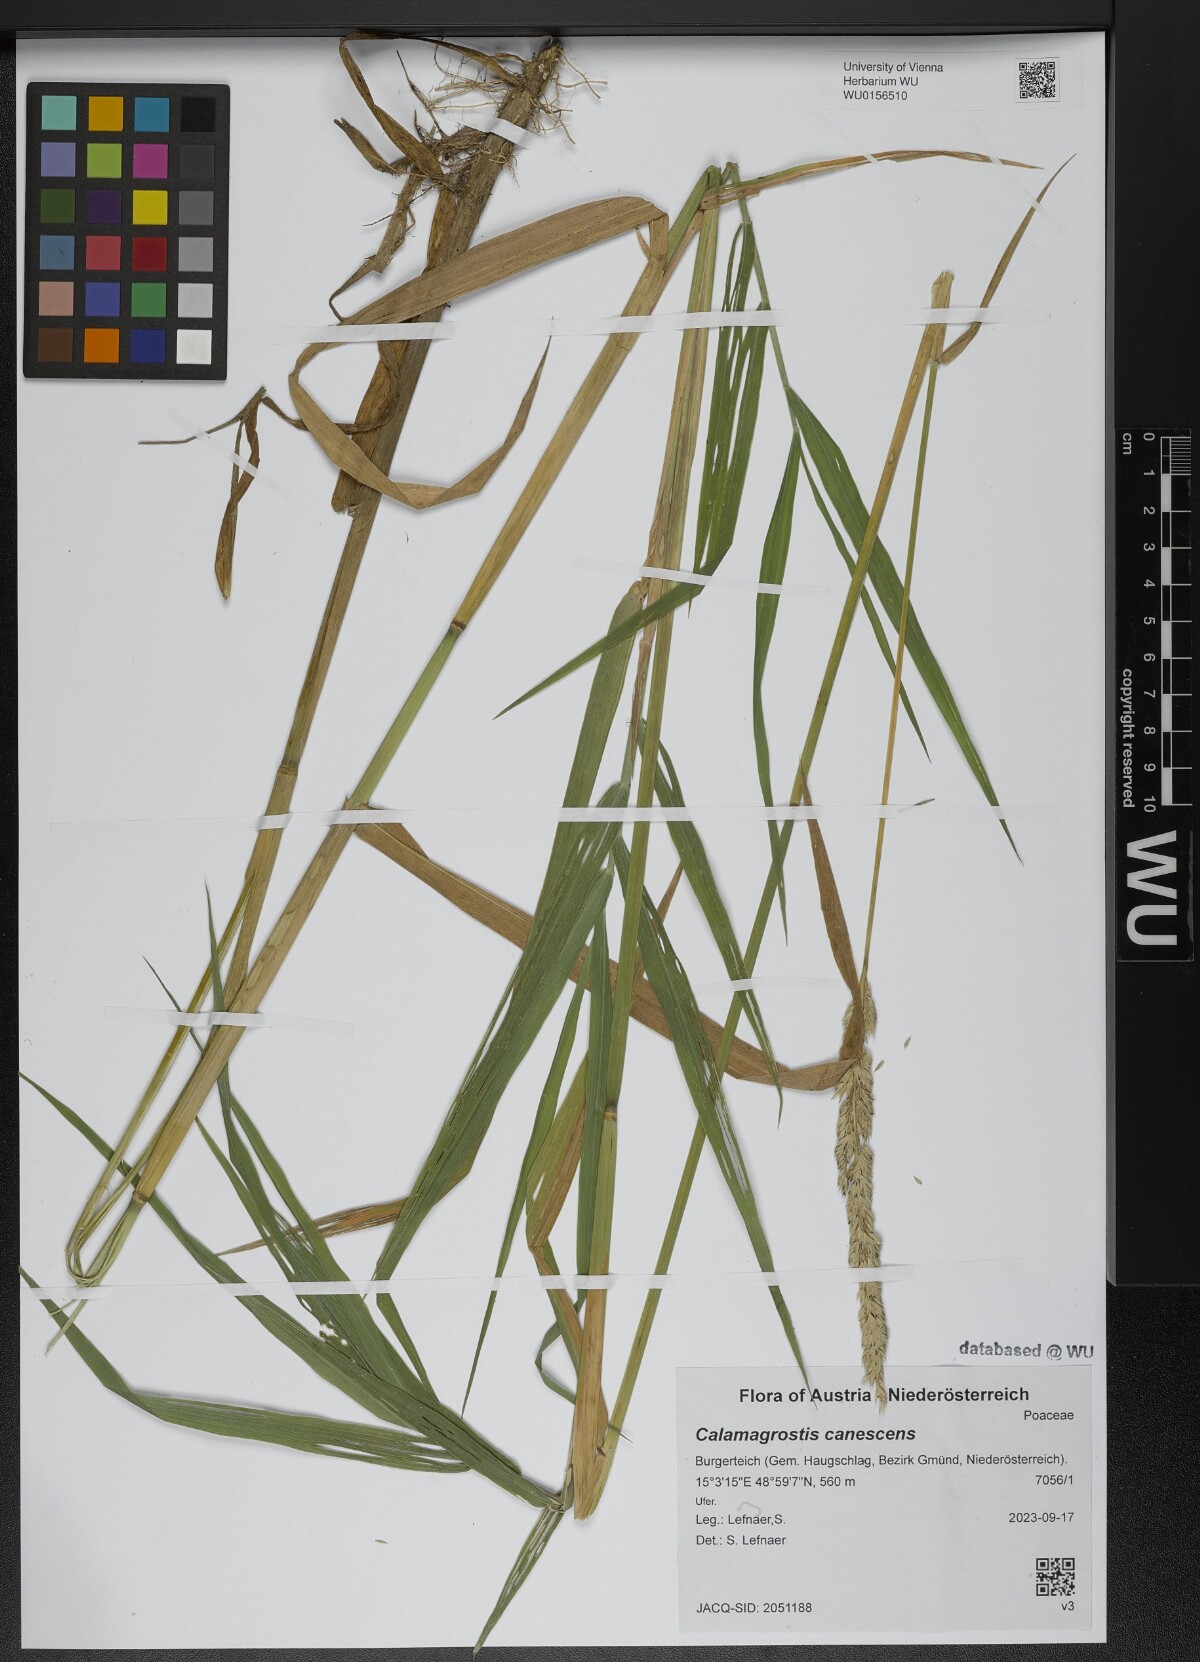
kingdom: Plantae
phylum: Tracheophyta
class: Liliopsida
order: Poales
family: Poaceae
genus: Calamagrostis
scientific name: Calamagrostis canescens
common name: Purple small-reed
